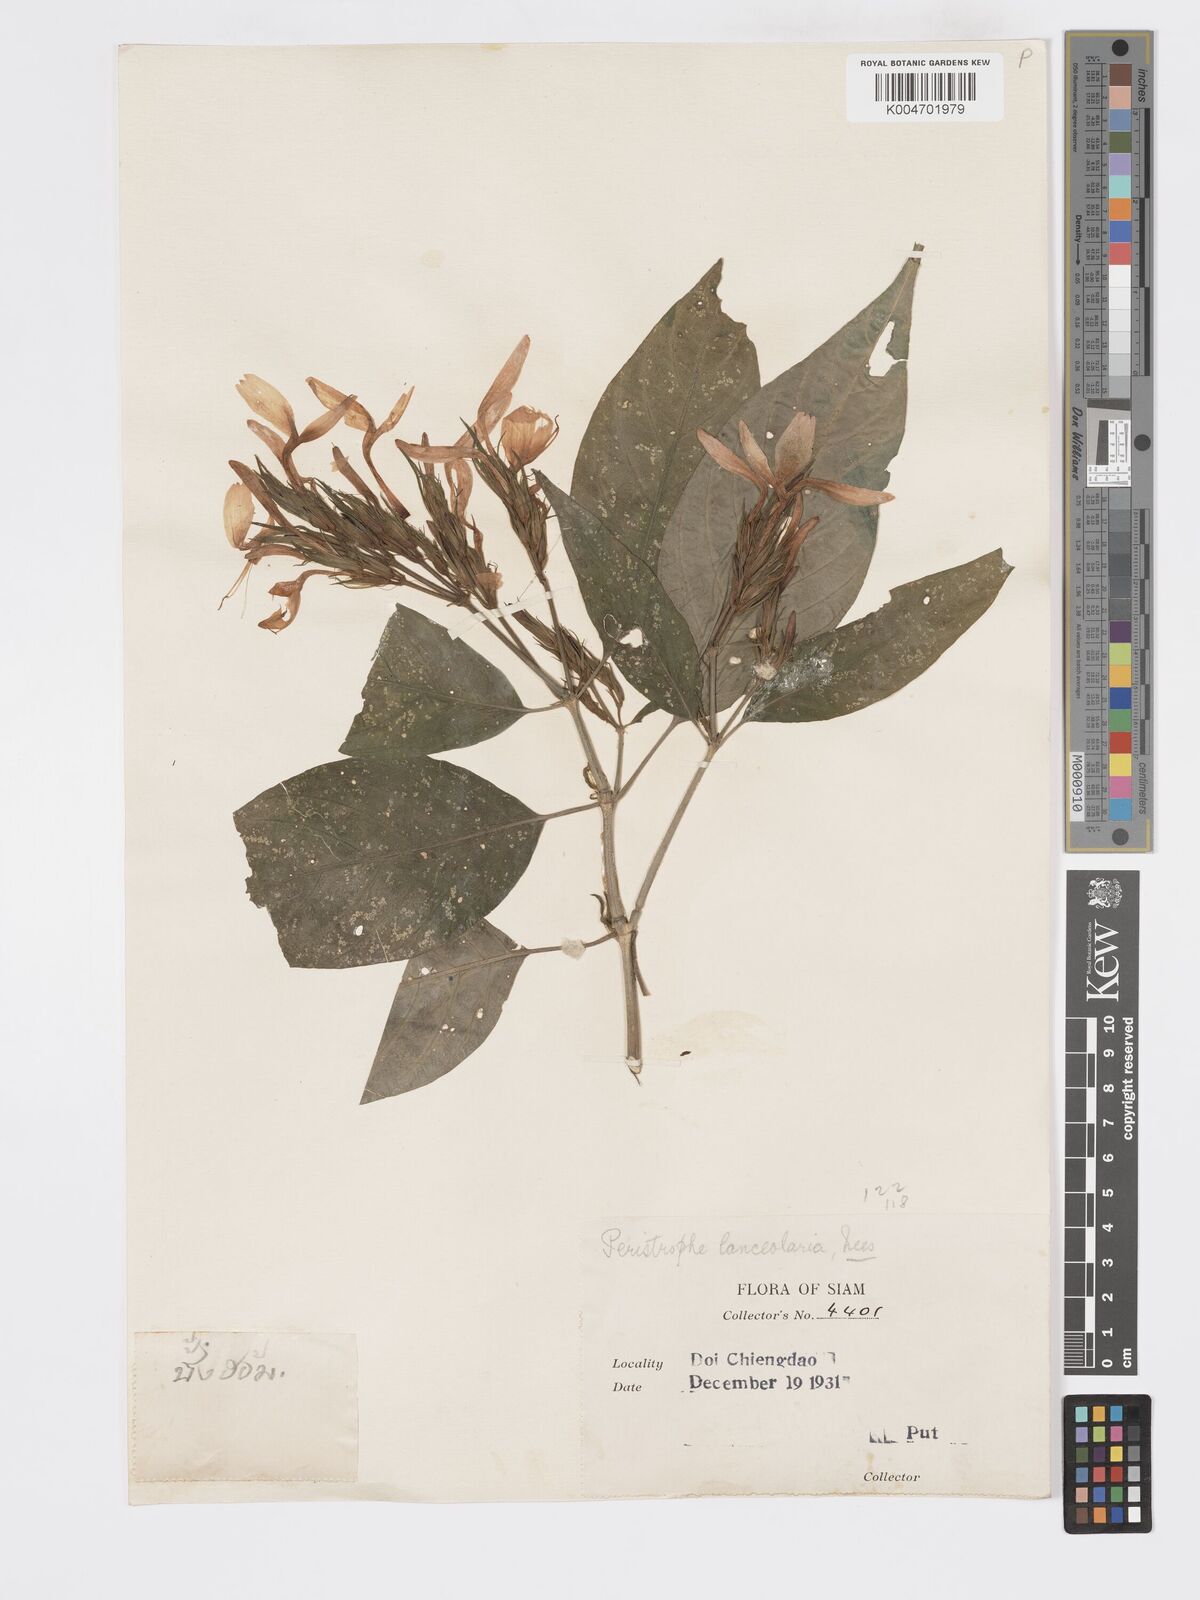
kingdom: Plantae
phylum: Tracheophyta
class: Magnoliopsida
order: Lamiales
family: Acanthaceae
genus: Dicliptera
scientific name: Dicliptera lanceolaria
